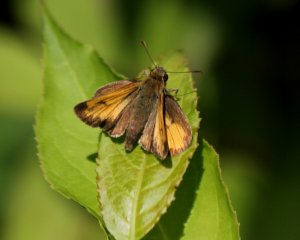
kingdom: Animalia
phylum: Arthropoda
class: Insecta
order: Lepidoptera
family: Hesperiidae
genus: Lon
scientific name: Lon hobomok
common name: Hobomok Skipper
